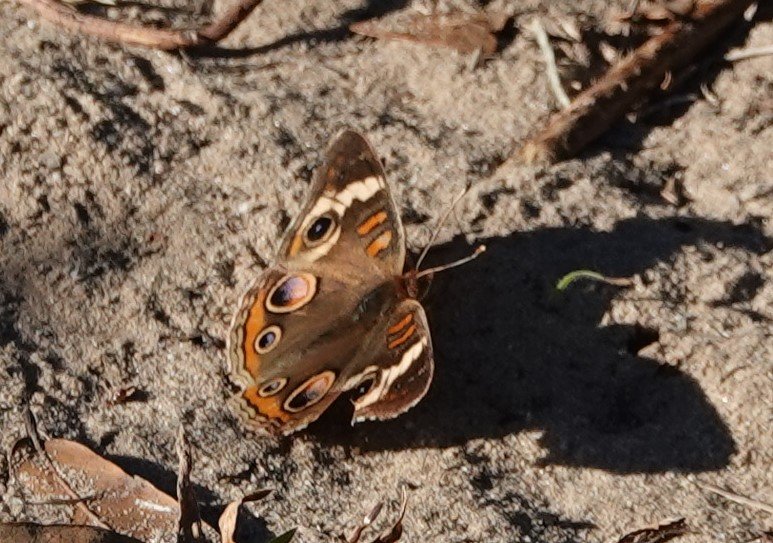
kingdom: Animalia
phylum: Arthropoda
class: Insecta
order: Lepidoptera
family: Nymphalidae
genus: Junonia
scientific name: Junonia coenia
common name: Common Buckeye
